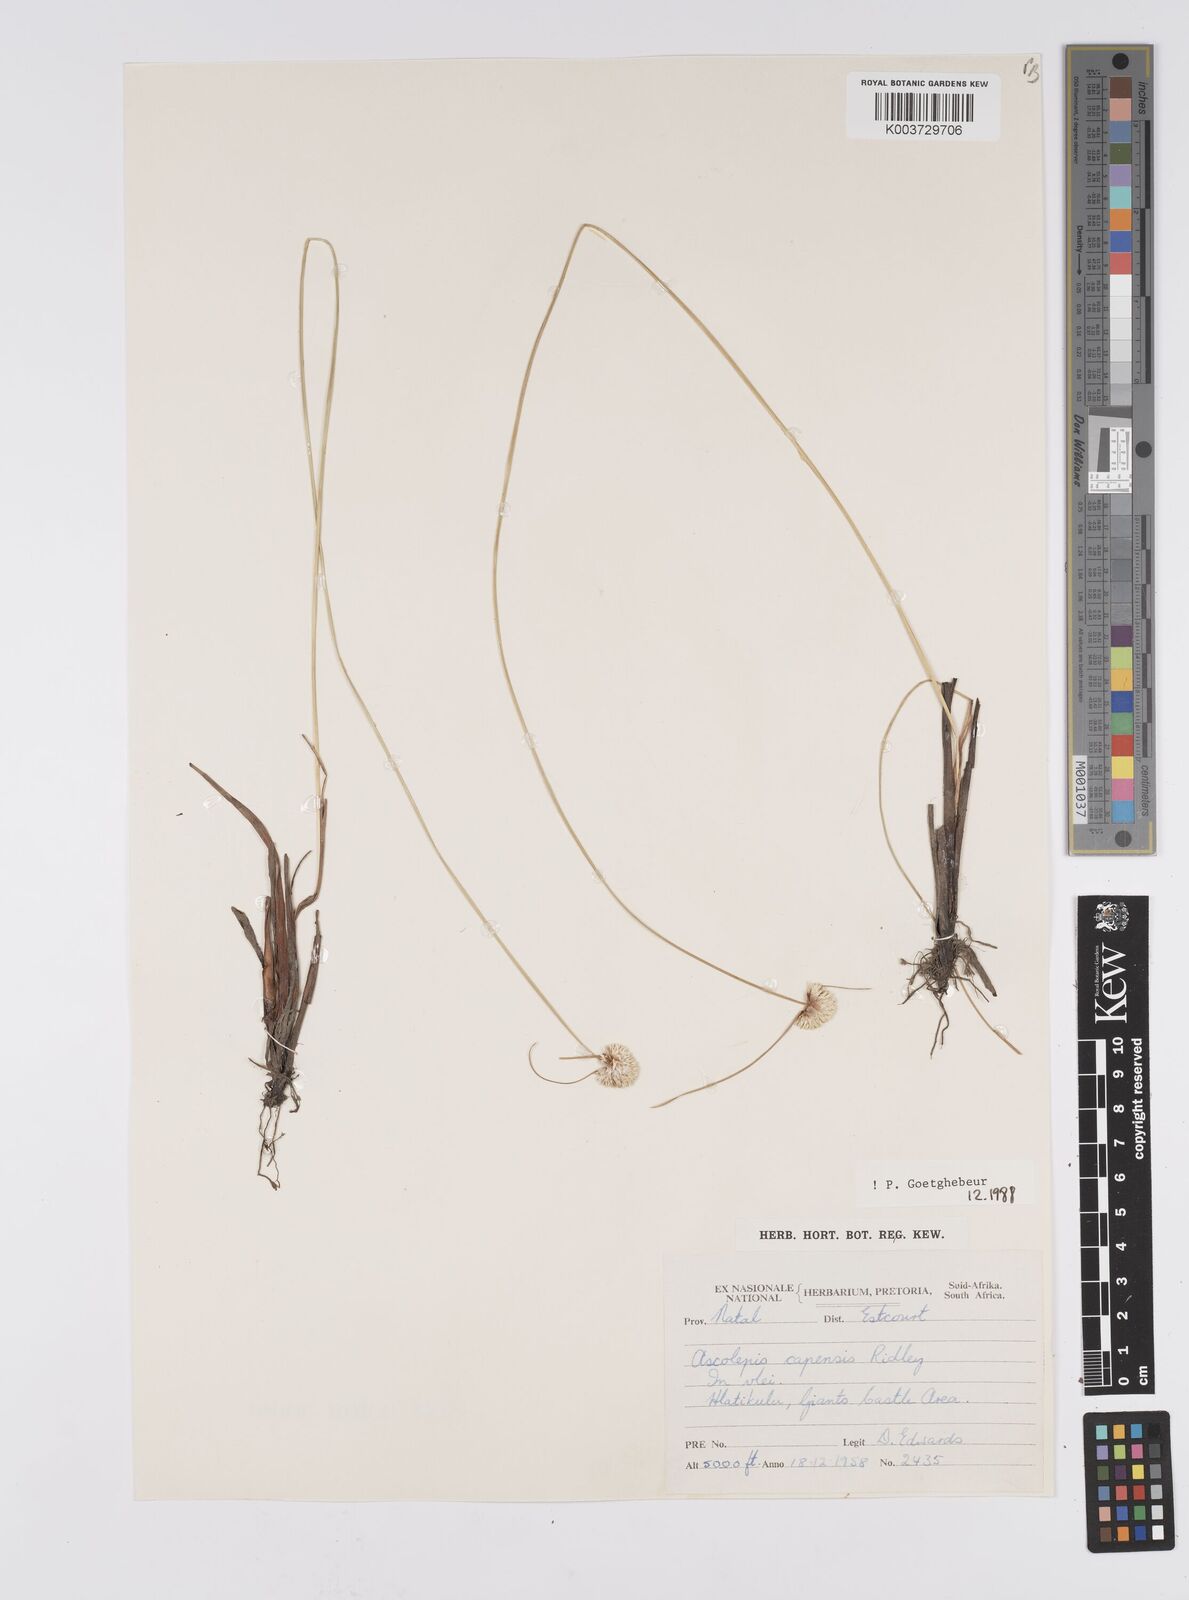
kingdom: Plantae
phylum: Tracheophyta
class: Liliopsida
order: Poales
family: Cyperaceae
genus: Cyperus
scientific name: Cyperus capensis
